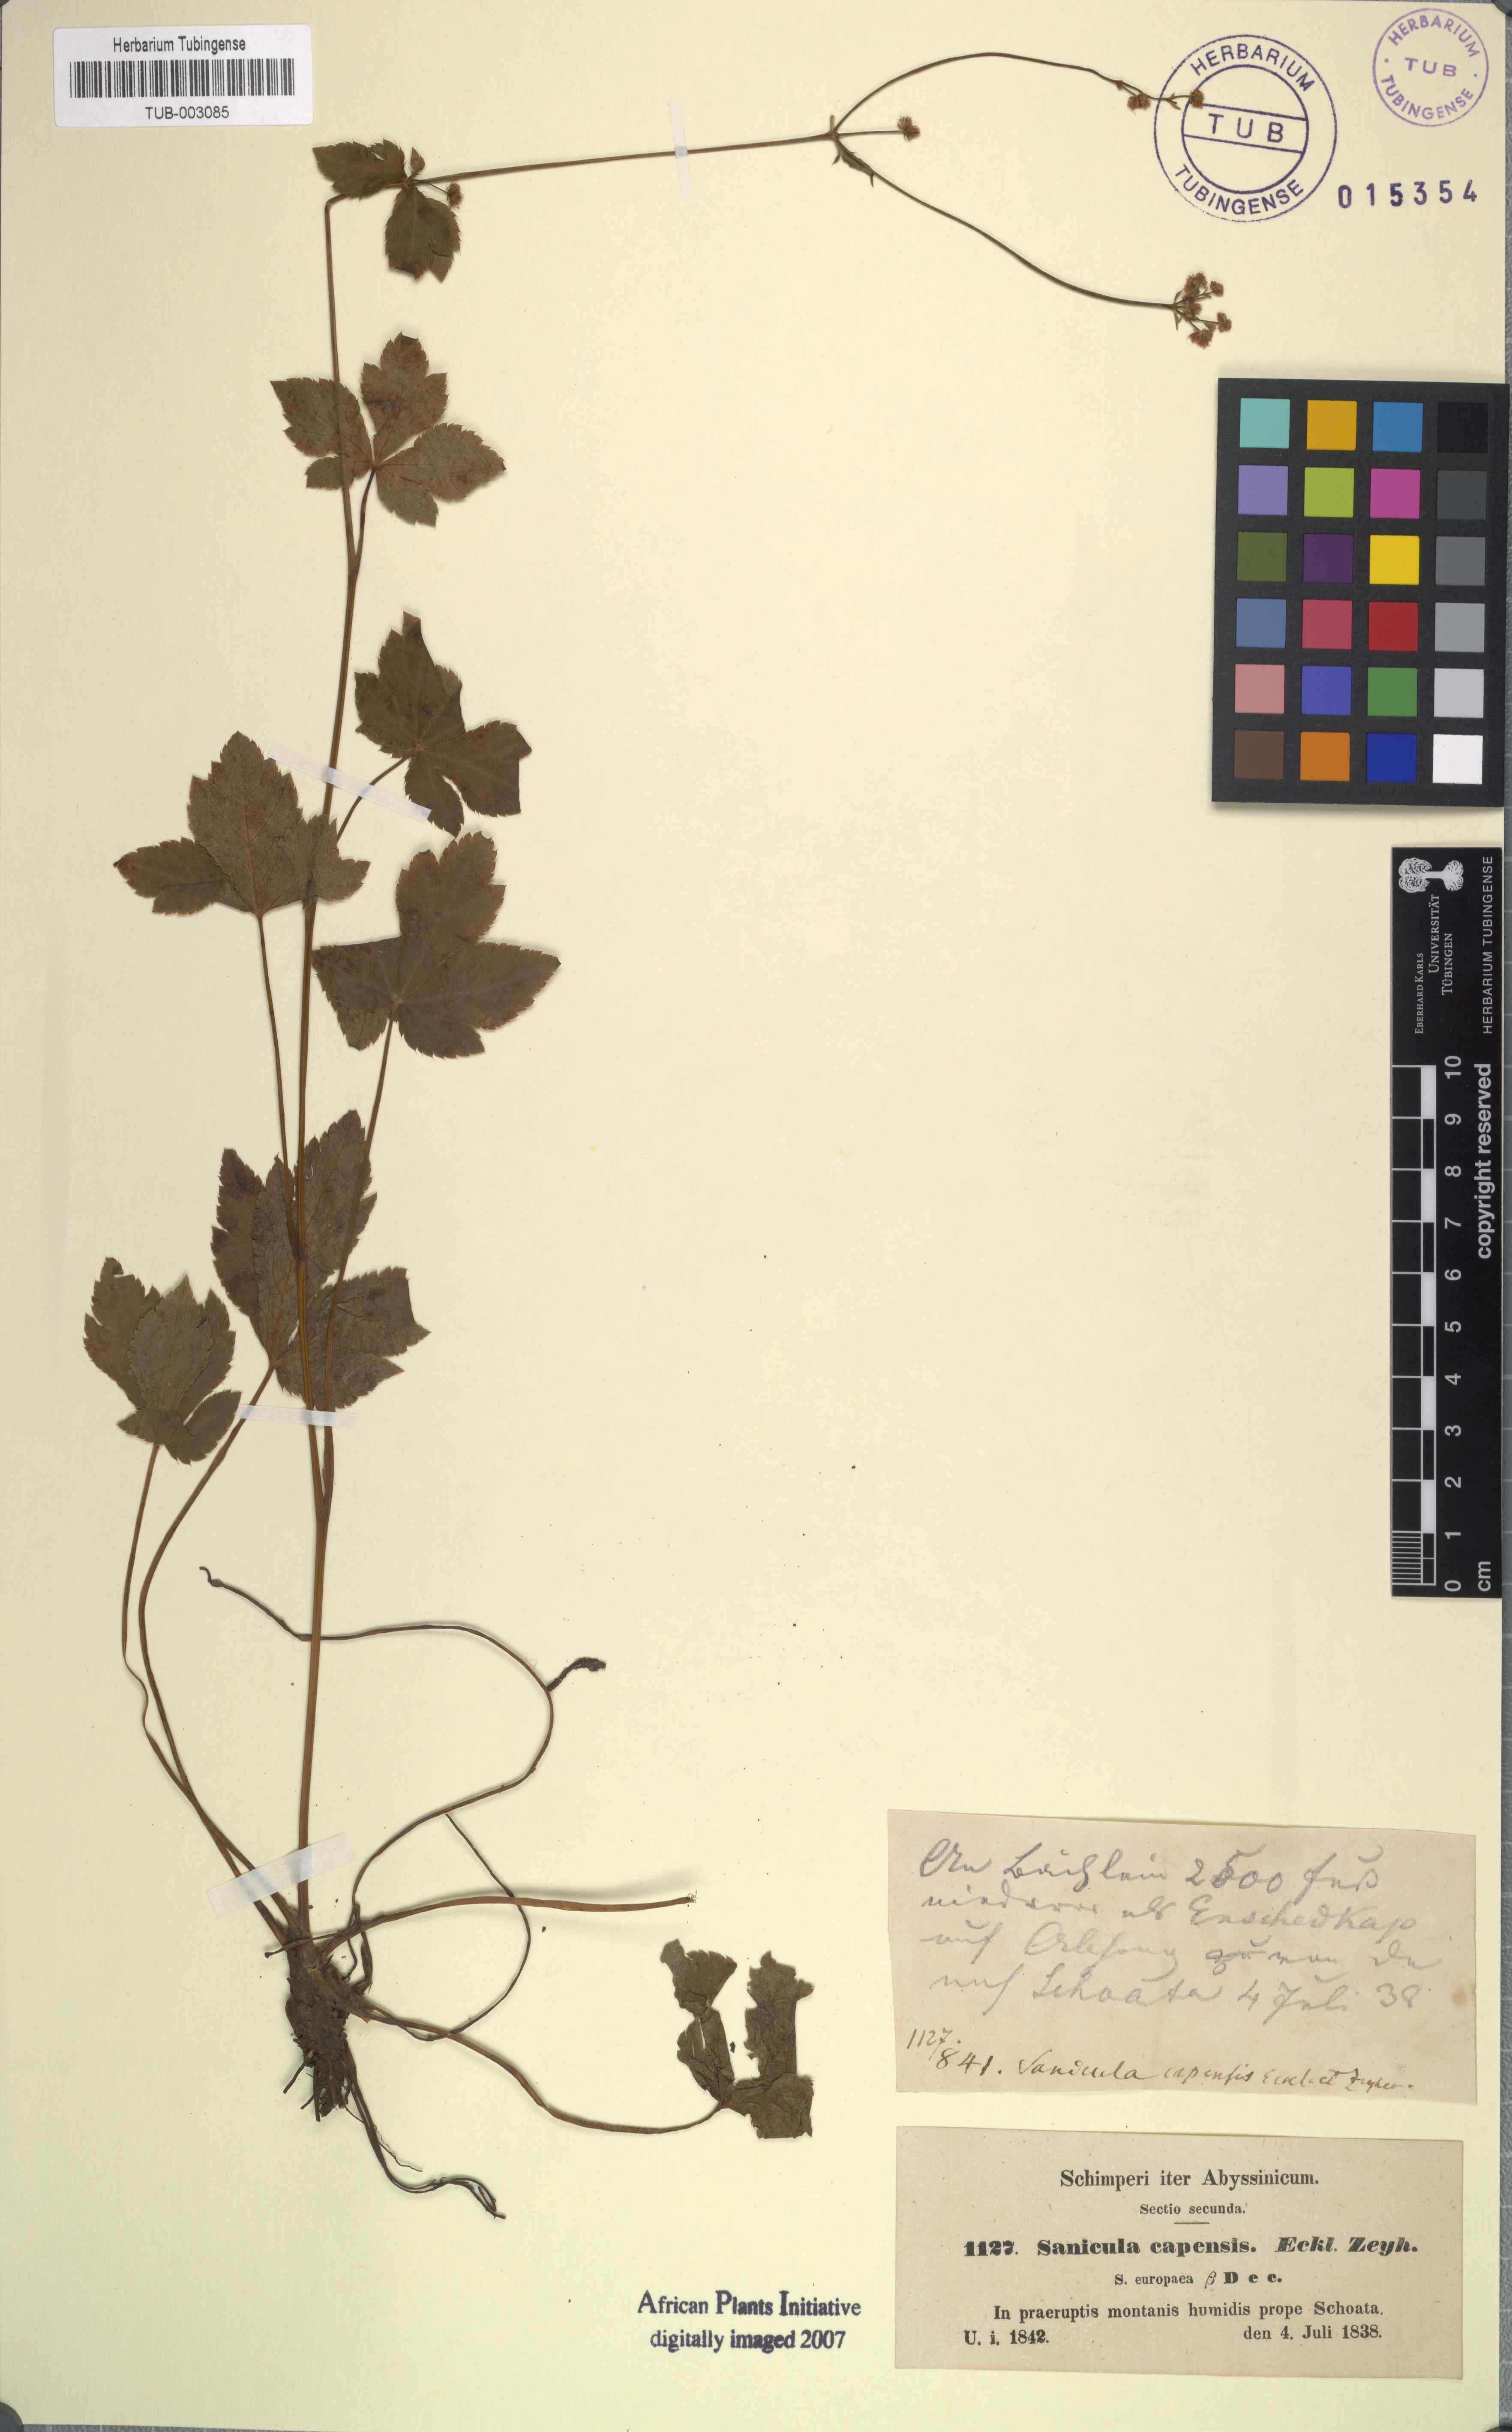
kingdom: Plantae
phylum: Tracheophyta
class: Magnoliopsida
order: Apiales
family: Apiaceae
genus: Sanicula
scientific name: Sanicula europaea
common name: Sanicle
